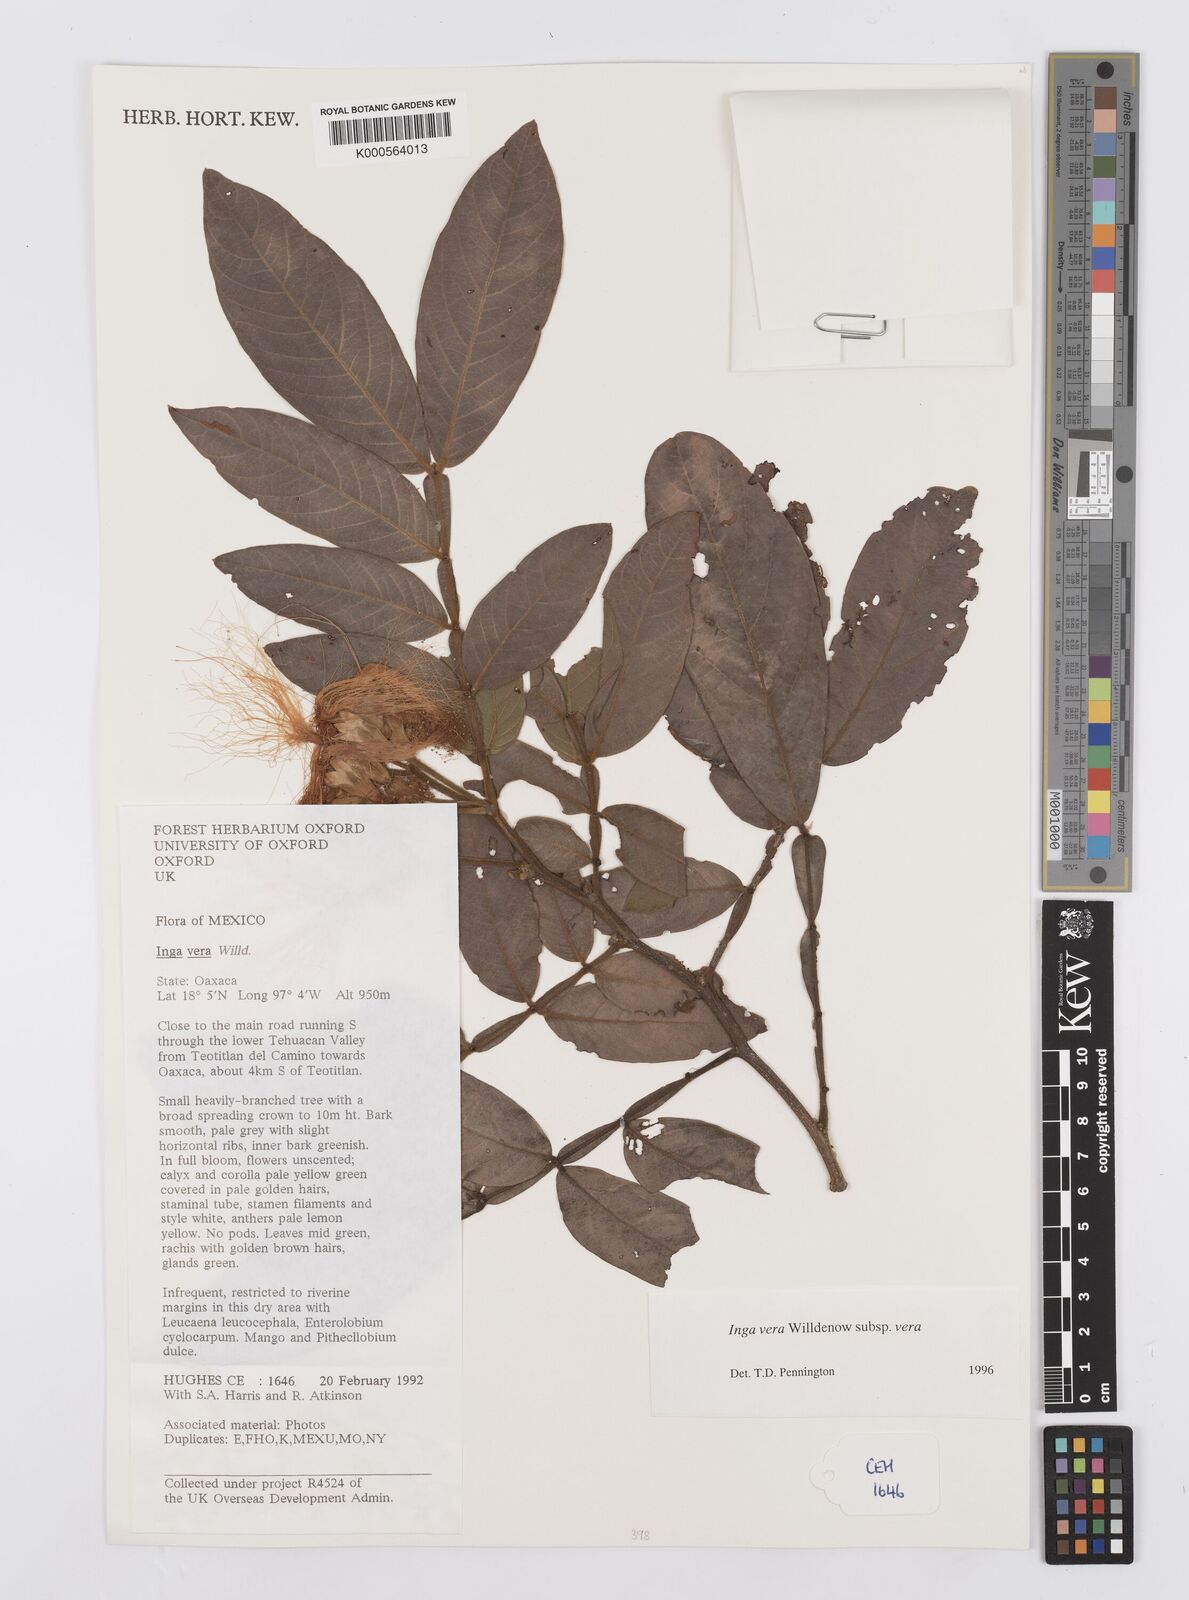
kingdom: Plantae
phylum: Tracheophyta
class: Magnoliopsida
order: Fabales
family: Fabaceae
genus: Inga
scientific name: Inga vera
